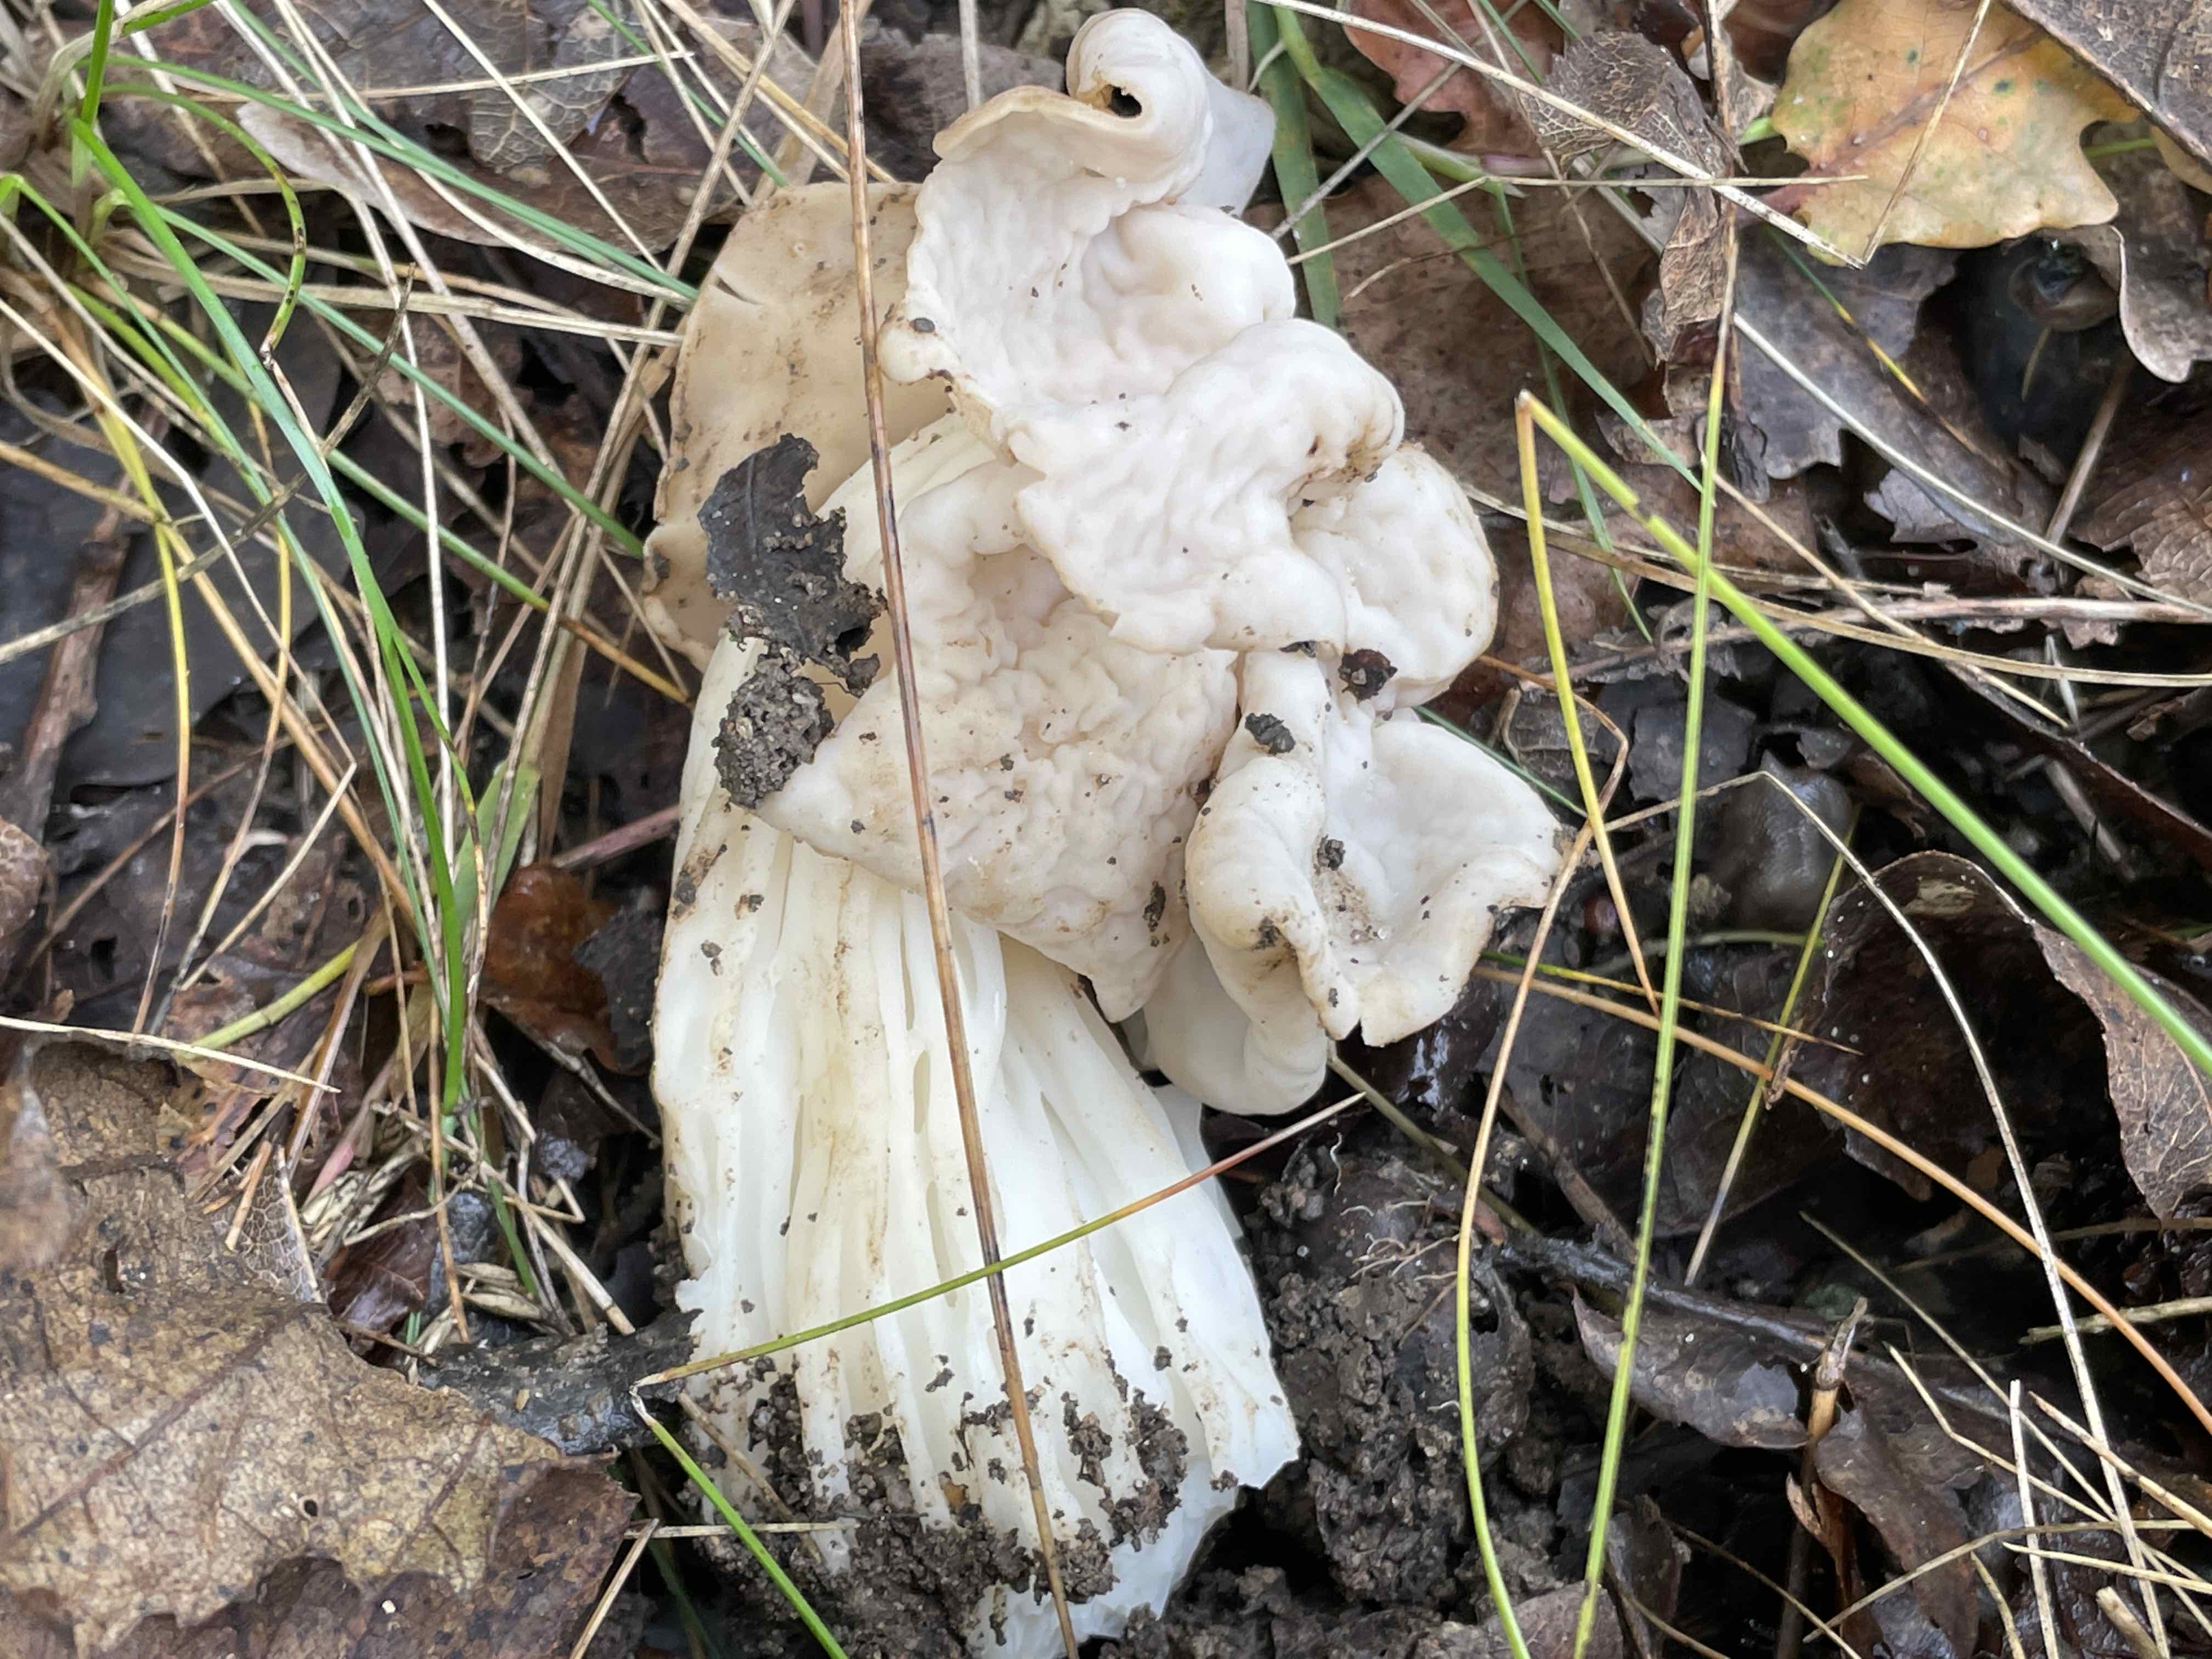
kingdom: Fungi
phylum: Ascomycota
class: Pezizomycetes
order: Pezizales
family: Helvellaceae
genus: Helvella
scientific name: Helvella crispa
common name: kruset foldhat
